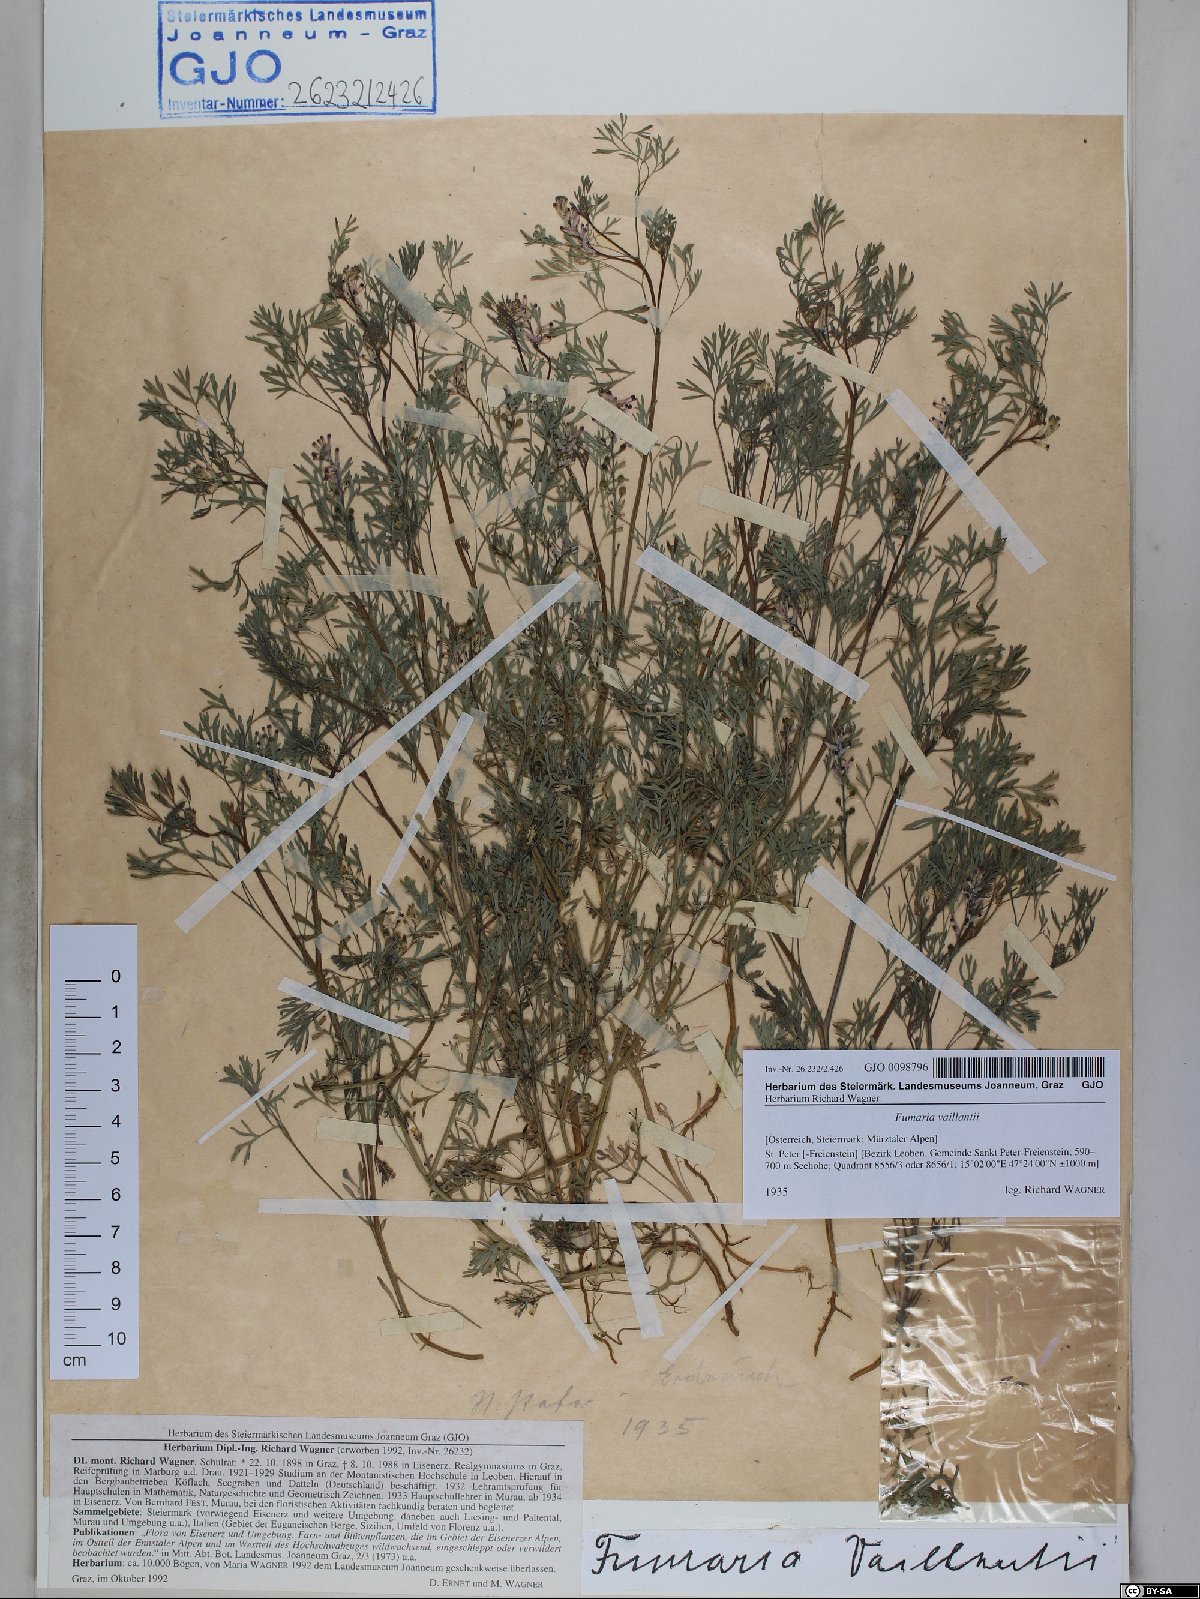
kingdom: Plantae
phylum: Tracheophyta
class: Magnoliopsida
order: Ranunculales
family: Papaveraceae
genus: Fumaria
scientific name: Fumaria vaillantii
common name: Few-flowered fumitory
